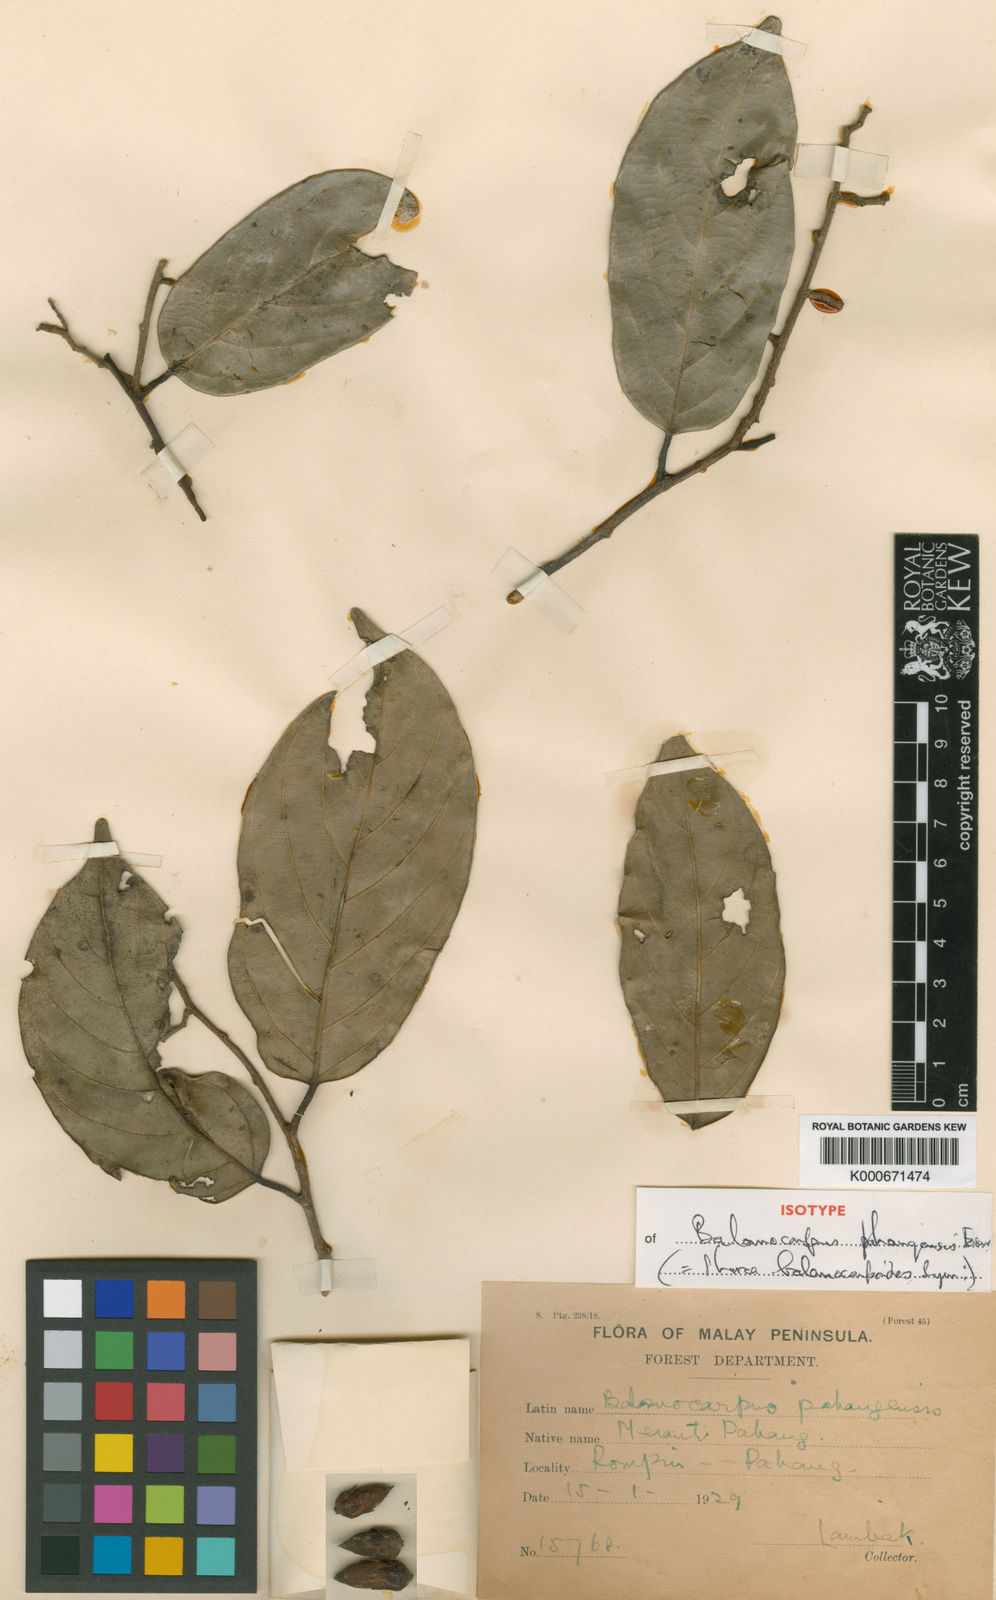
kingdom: Plantae
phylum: Tracheophyta
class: Magnoliopsida
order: Malvales
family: Dipterocarpaceae
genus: Shorea
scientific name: Shorea balanocarpoides
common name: White meranti
